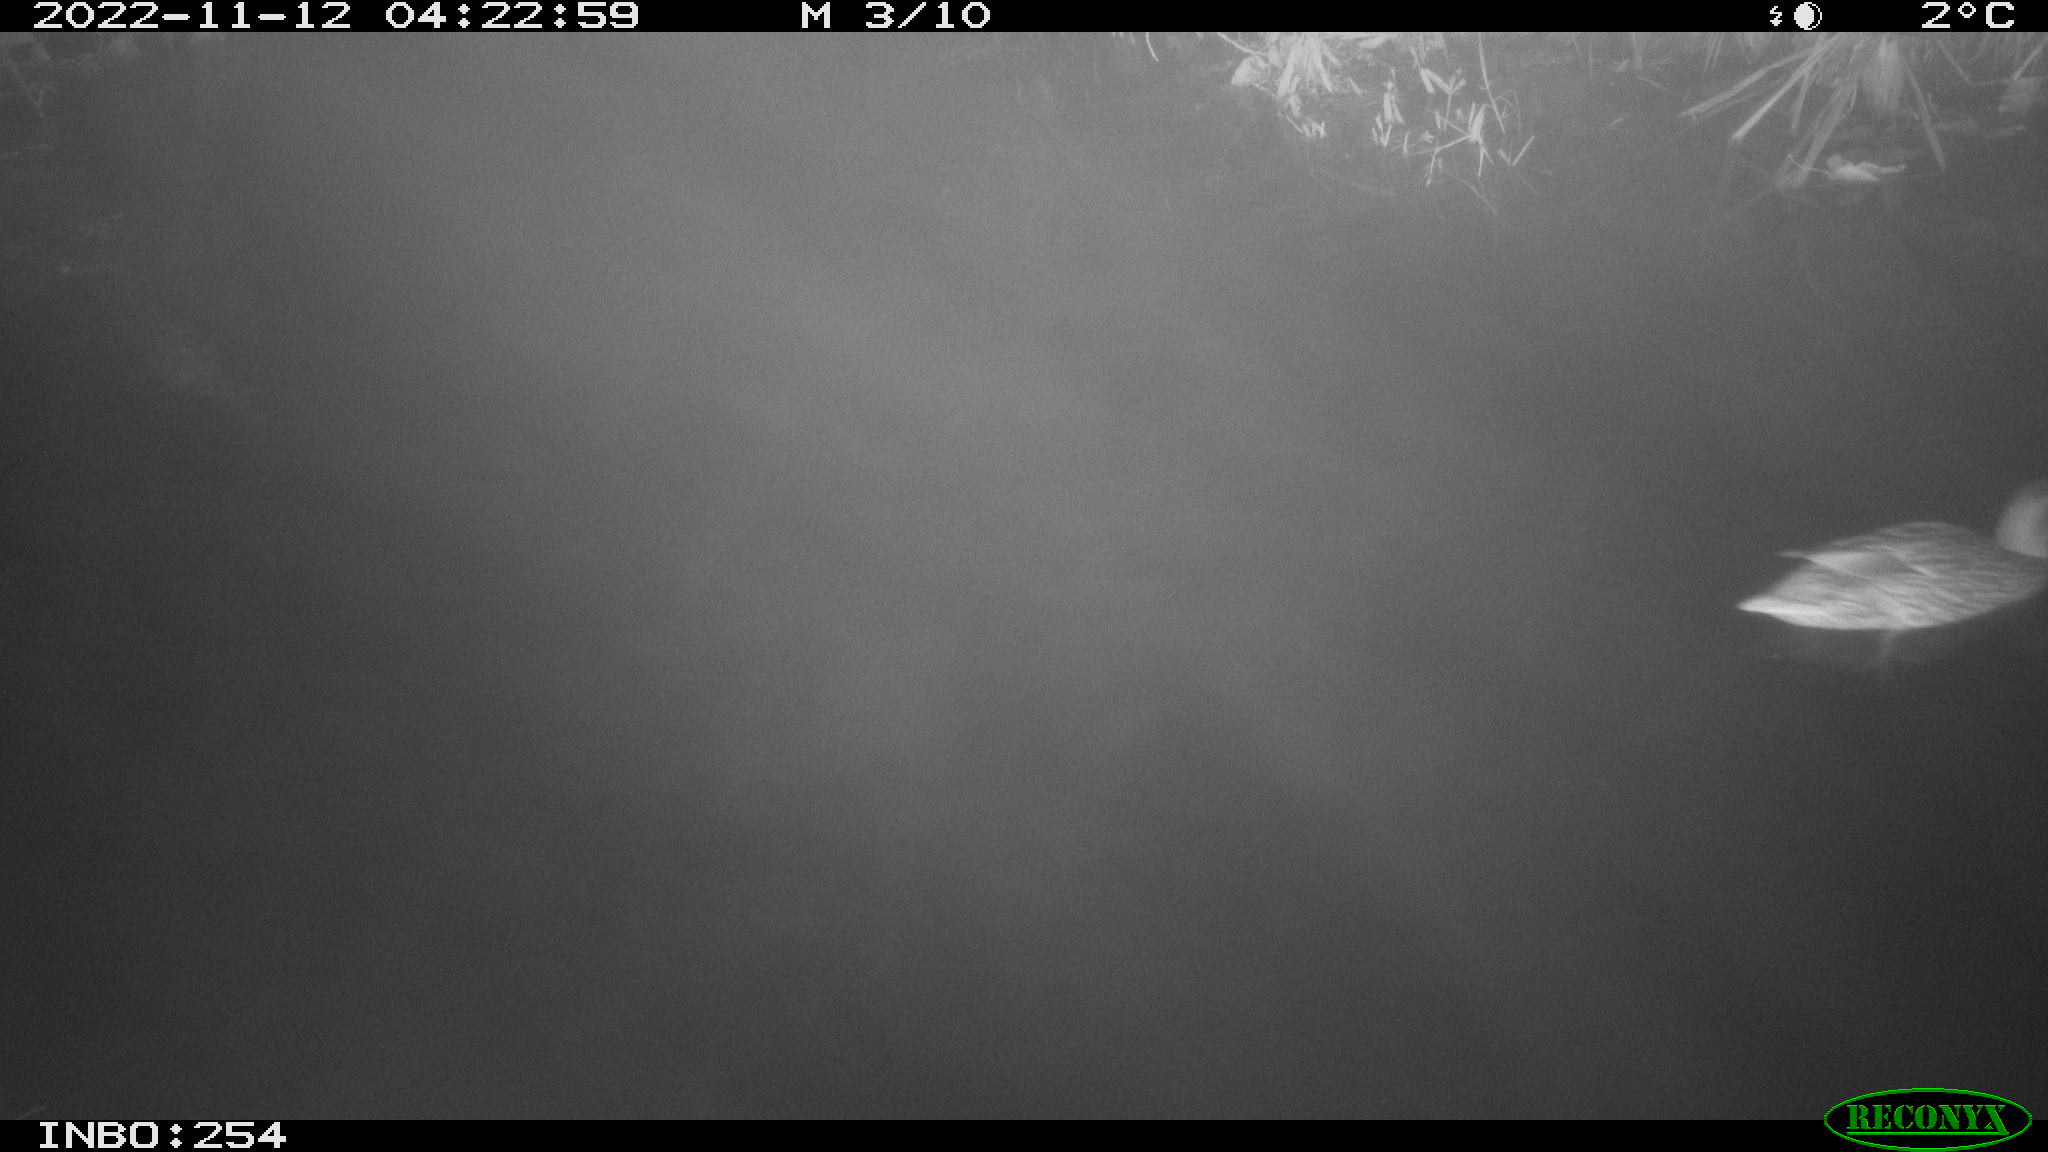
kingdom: Animalia
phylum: Chordata
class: Aves
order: Anseriformes
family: Anatidae
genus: Anas
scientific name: Anas
